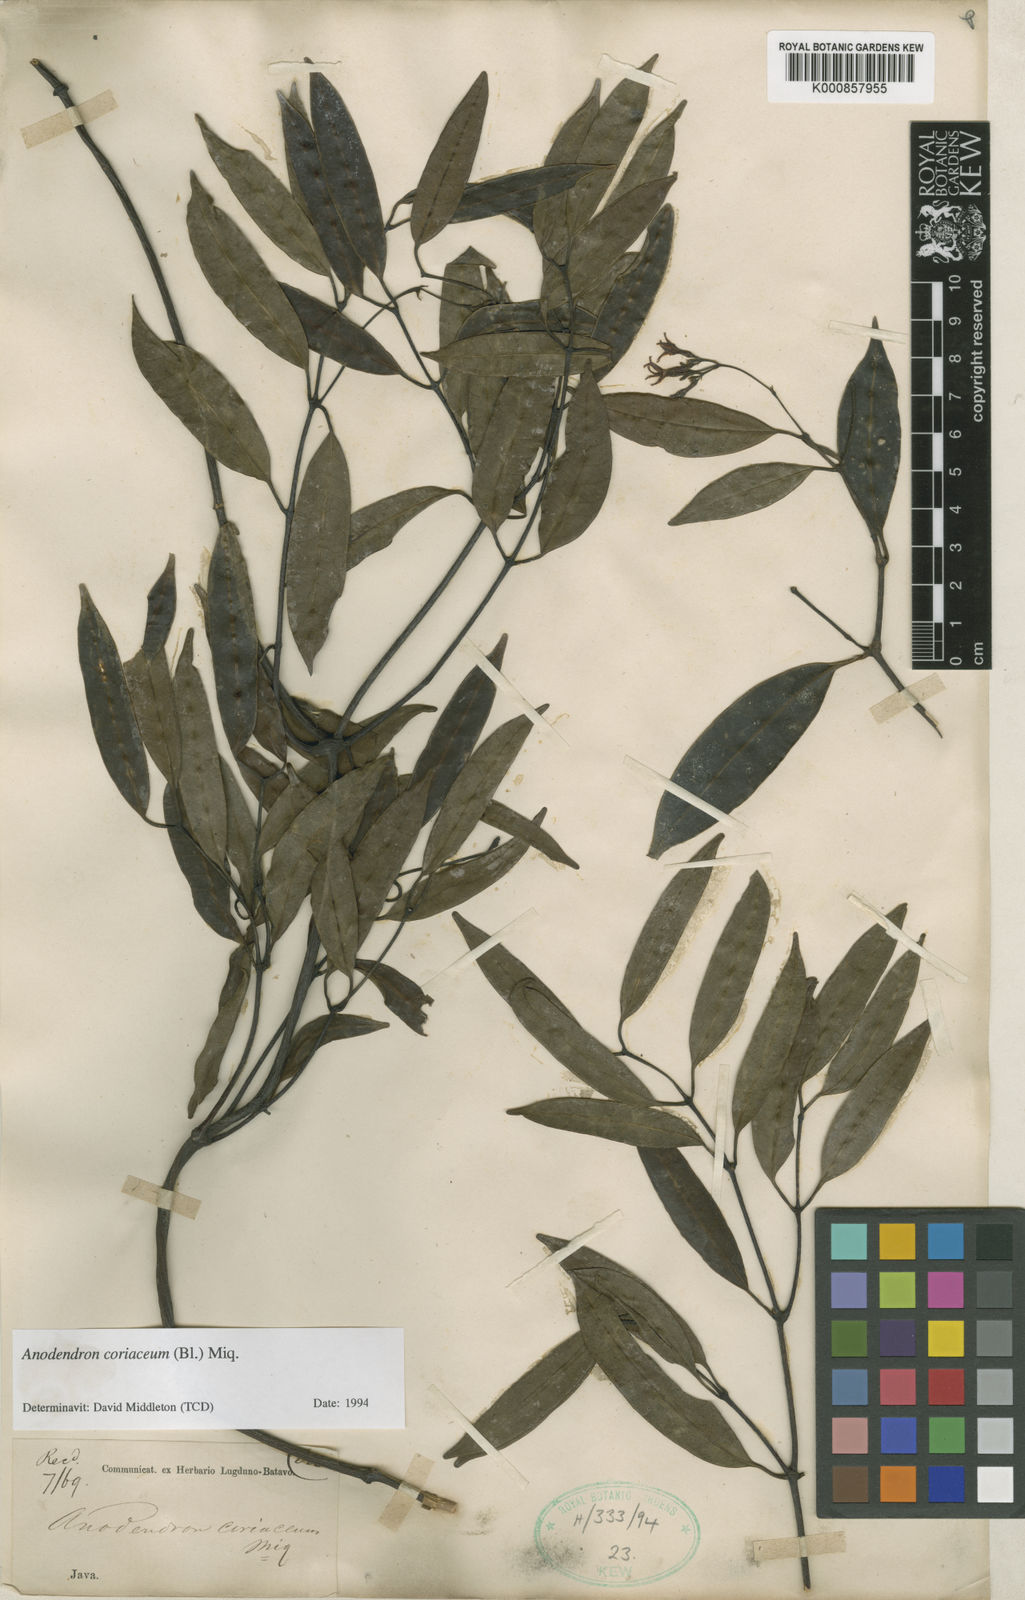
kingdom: Plantae
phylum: Tracheophyta
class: Magnoliopsida
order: Gentianales
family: Apocynaceae
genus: Anodendron
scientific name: Anodendron coriaceum
